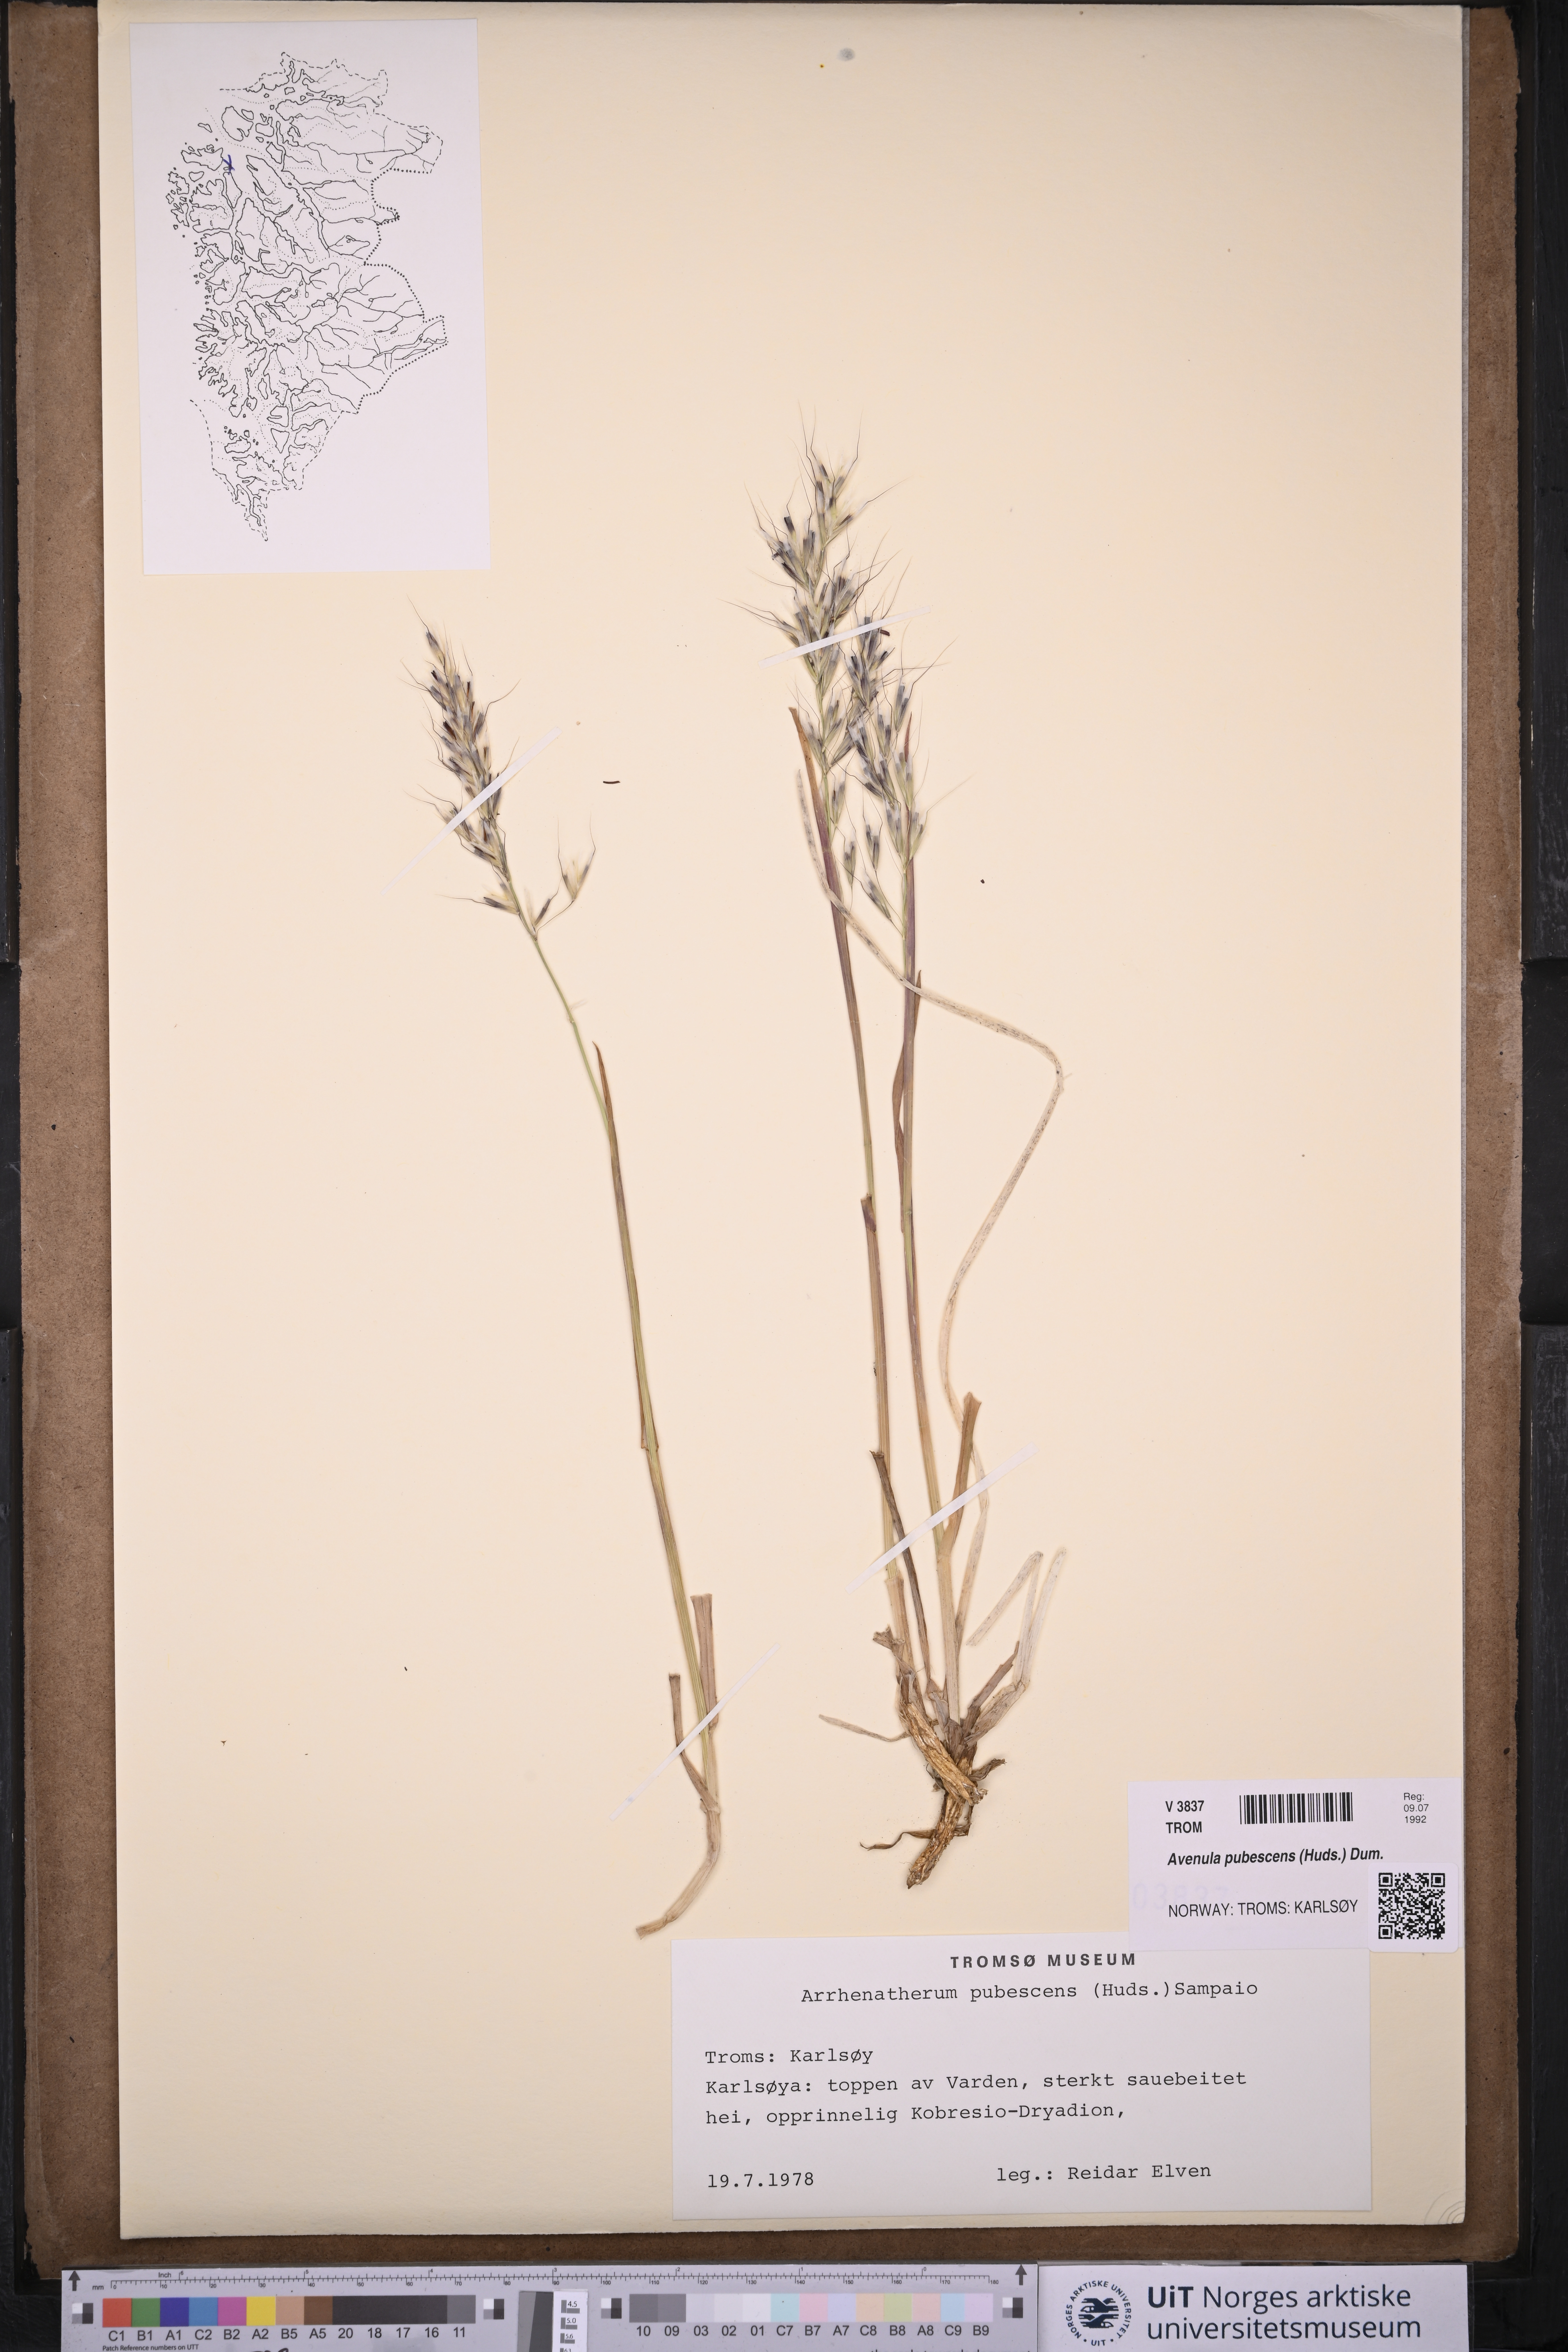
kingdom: Plantae
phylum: Tracheophyta
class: Liliopsida
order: Poales
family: Poaceae
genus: Avenula
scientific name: Avenula pubescens
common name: Downy alpine oatgrass
